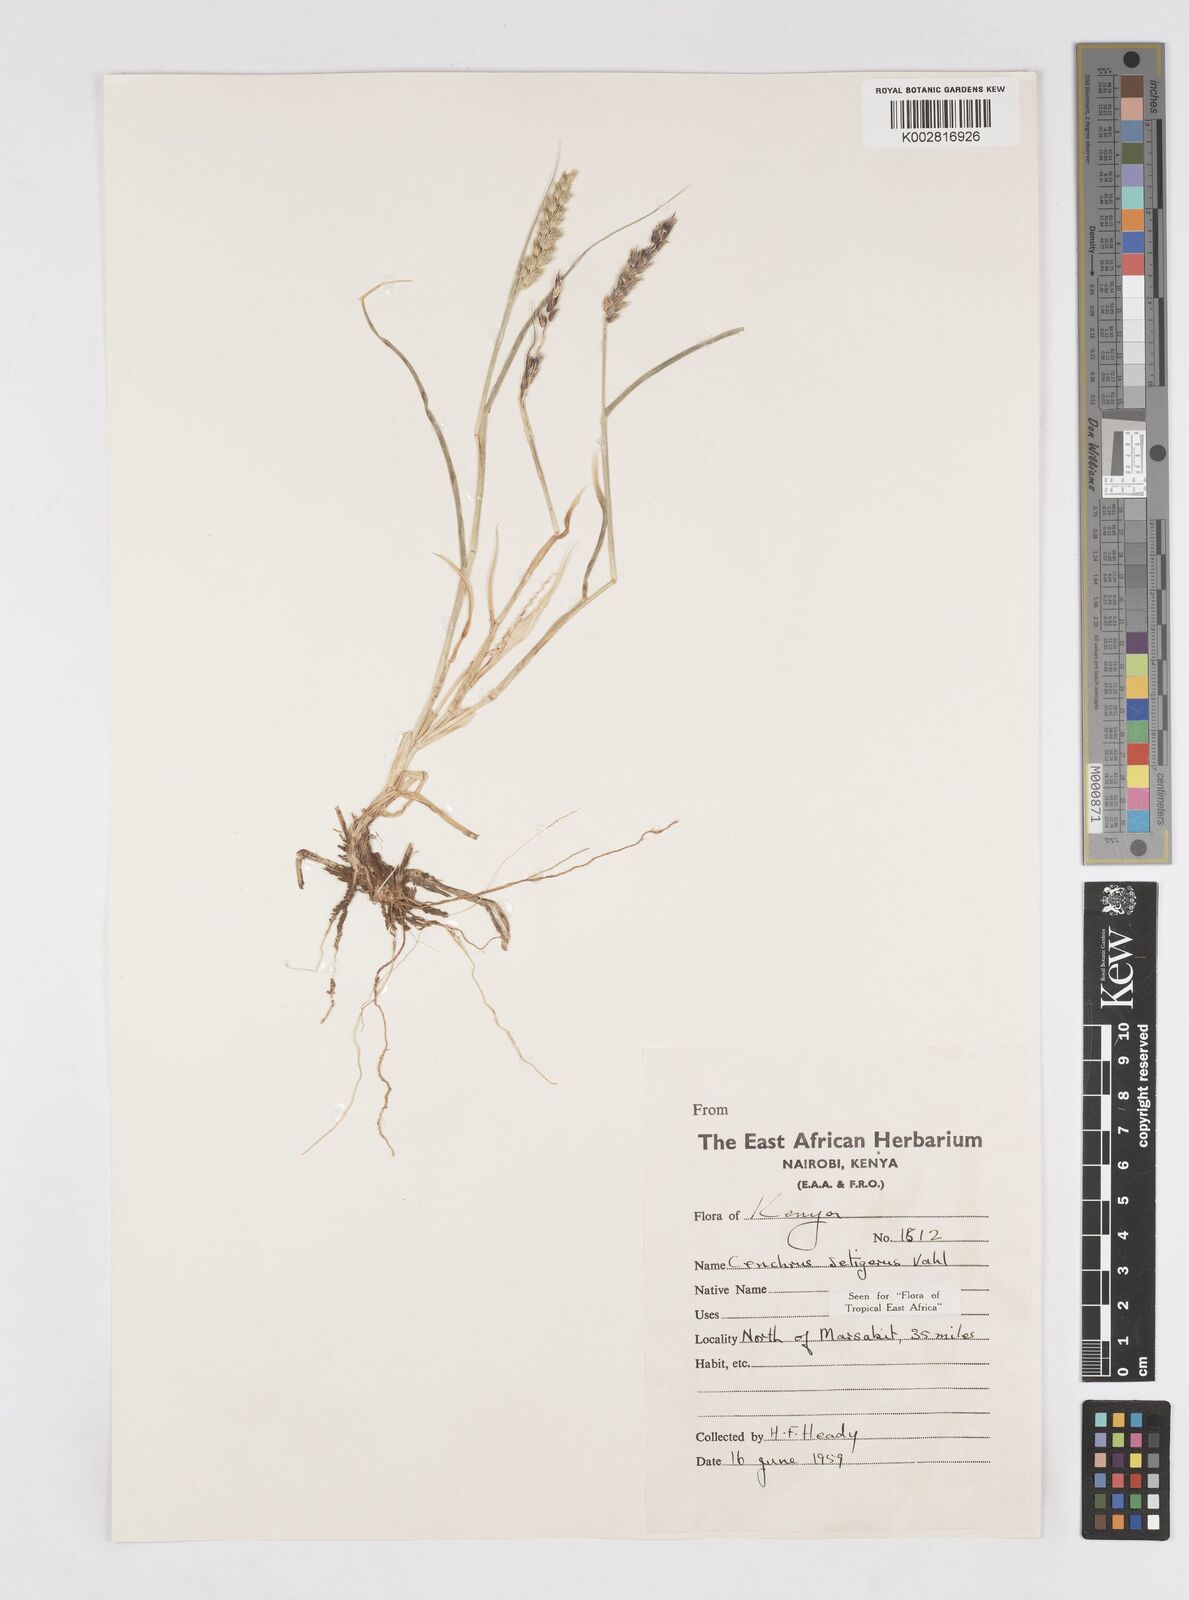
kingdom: Plantae
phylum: Tracheophyta
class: Liliopsida
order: Poales
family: Poaceae
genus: Cenchrus
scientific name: Cenchrus setigerus
